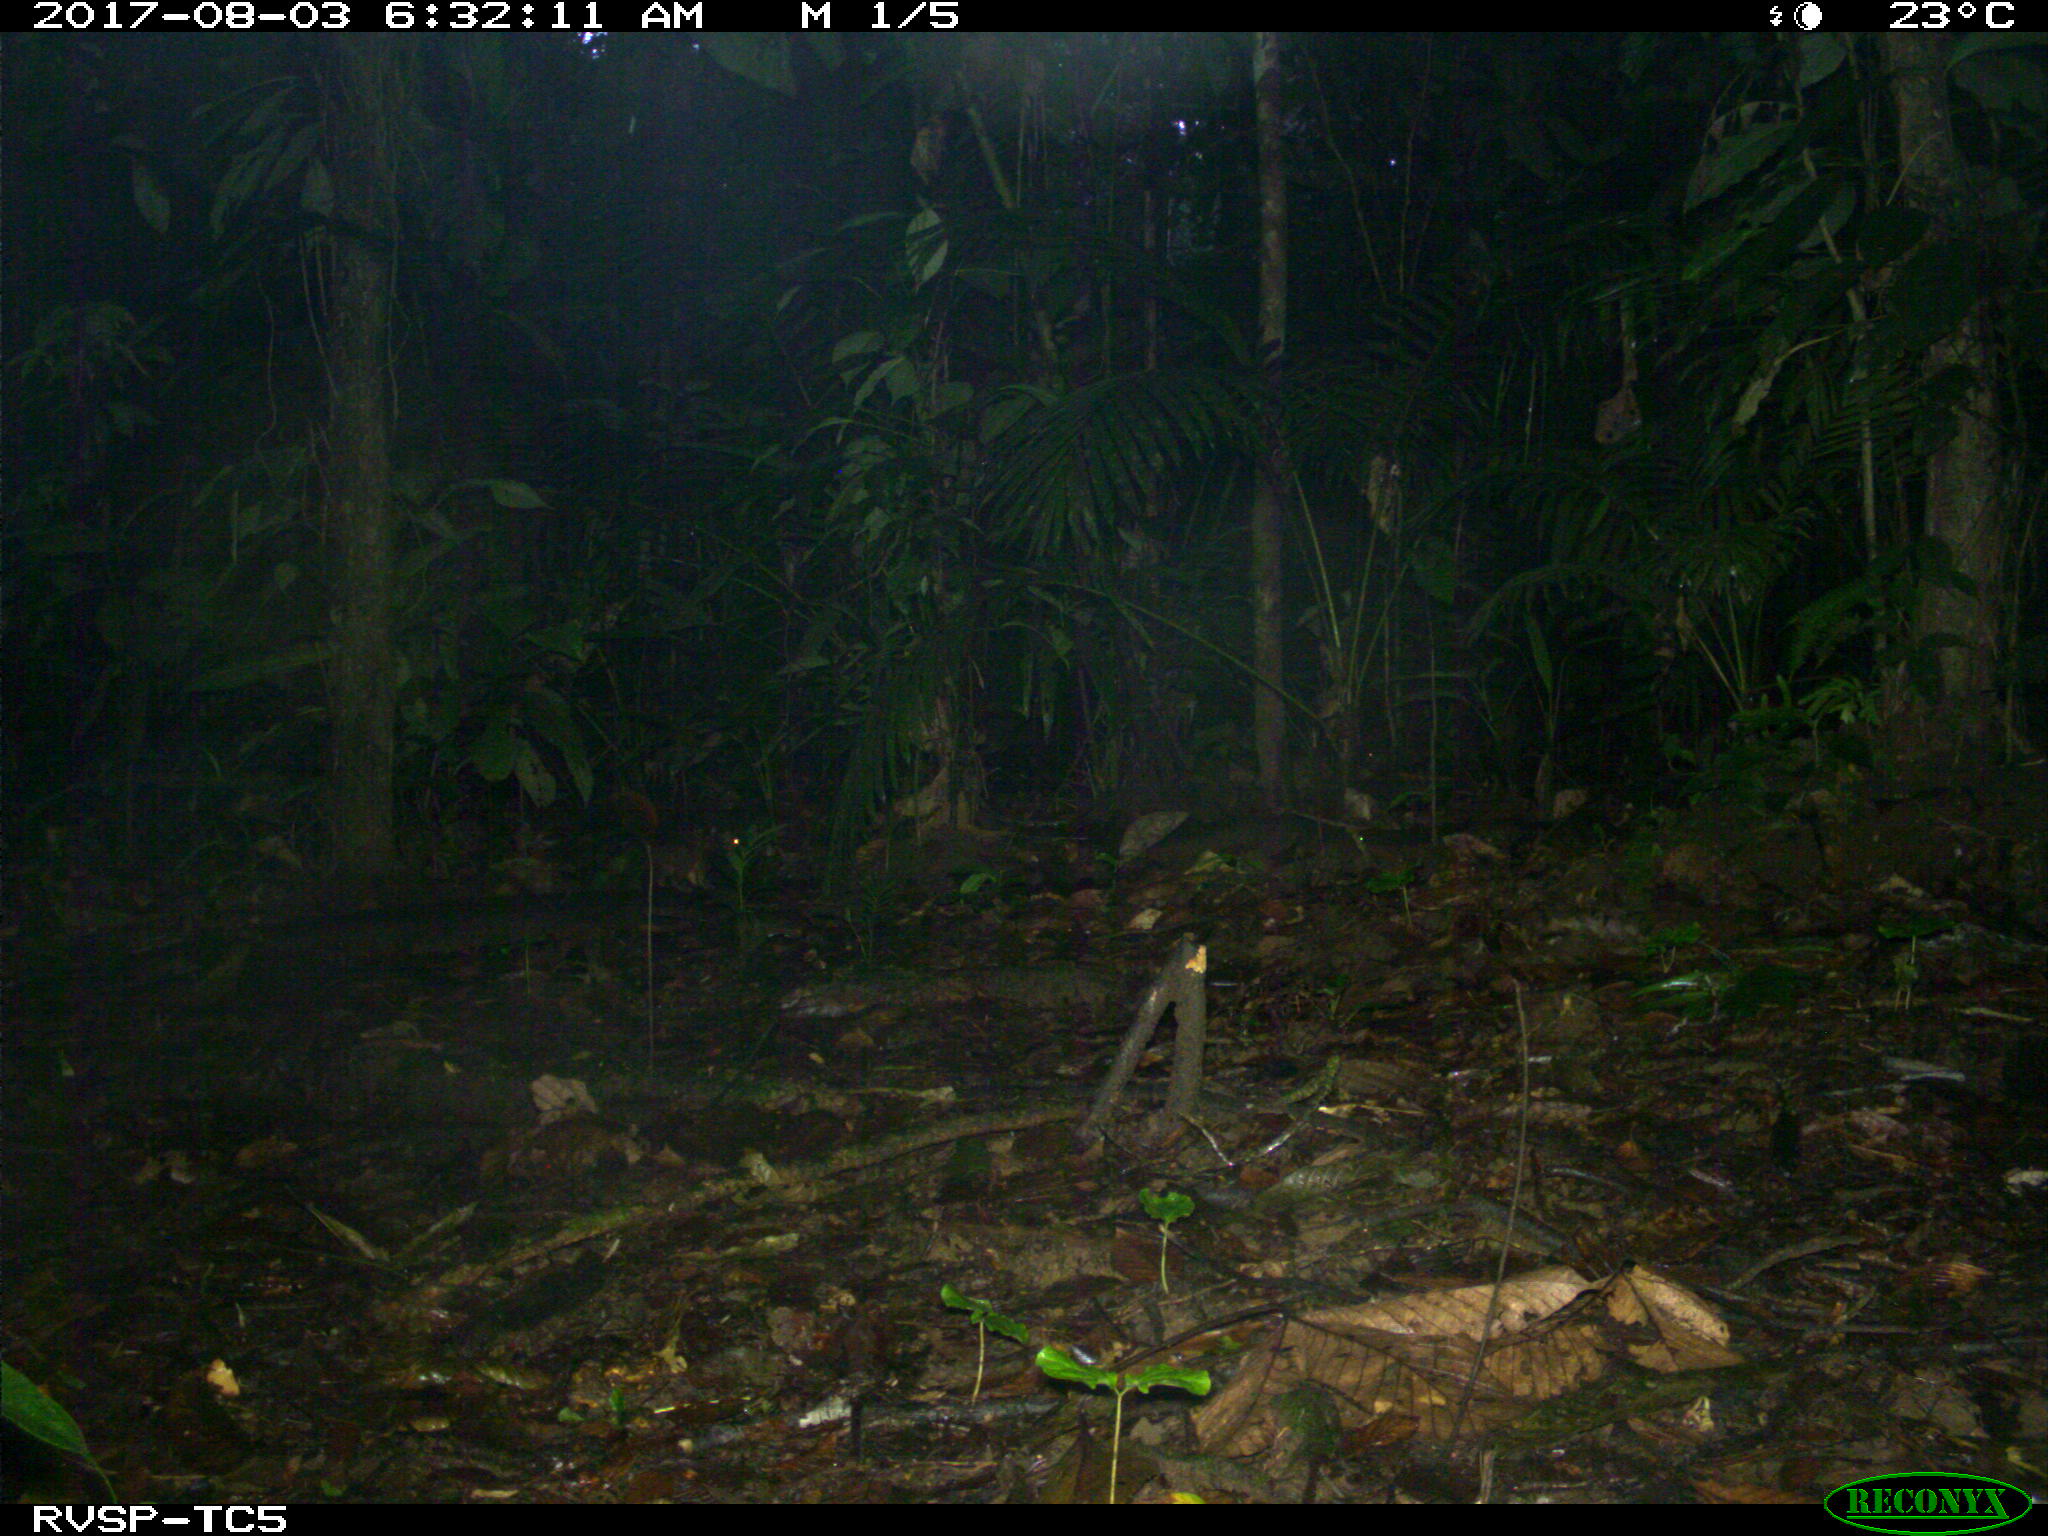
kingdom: Animalia
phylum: Chordata
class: Mammalia
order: Rodentia
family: Sciuridae
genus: Sciurus
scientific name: Sciurus granatensis
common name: Red-tailed squirrel
